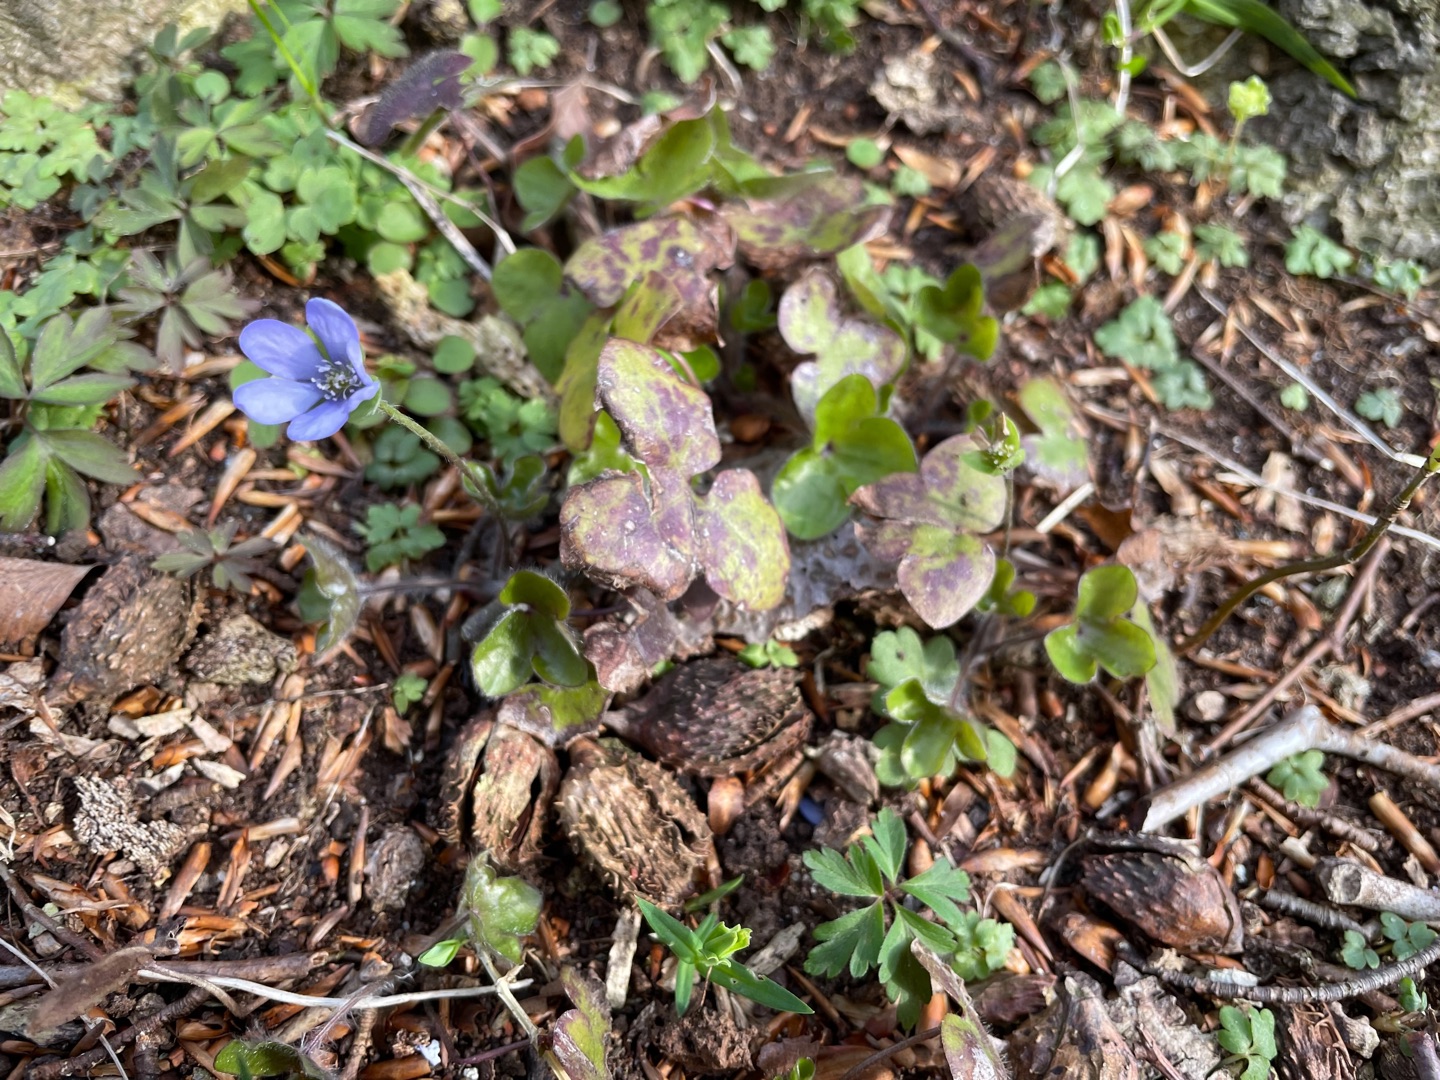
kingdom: Plantae
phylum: Tracheophyta
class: Magnoliopsida
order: Ranunculales
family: Ranunculaceae
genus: Hepatica
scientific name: Hepatica nobilis
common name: Blå anemone
